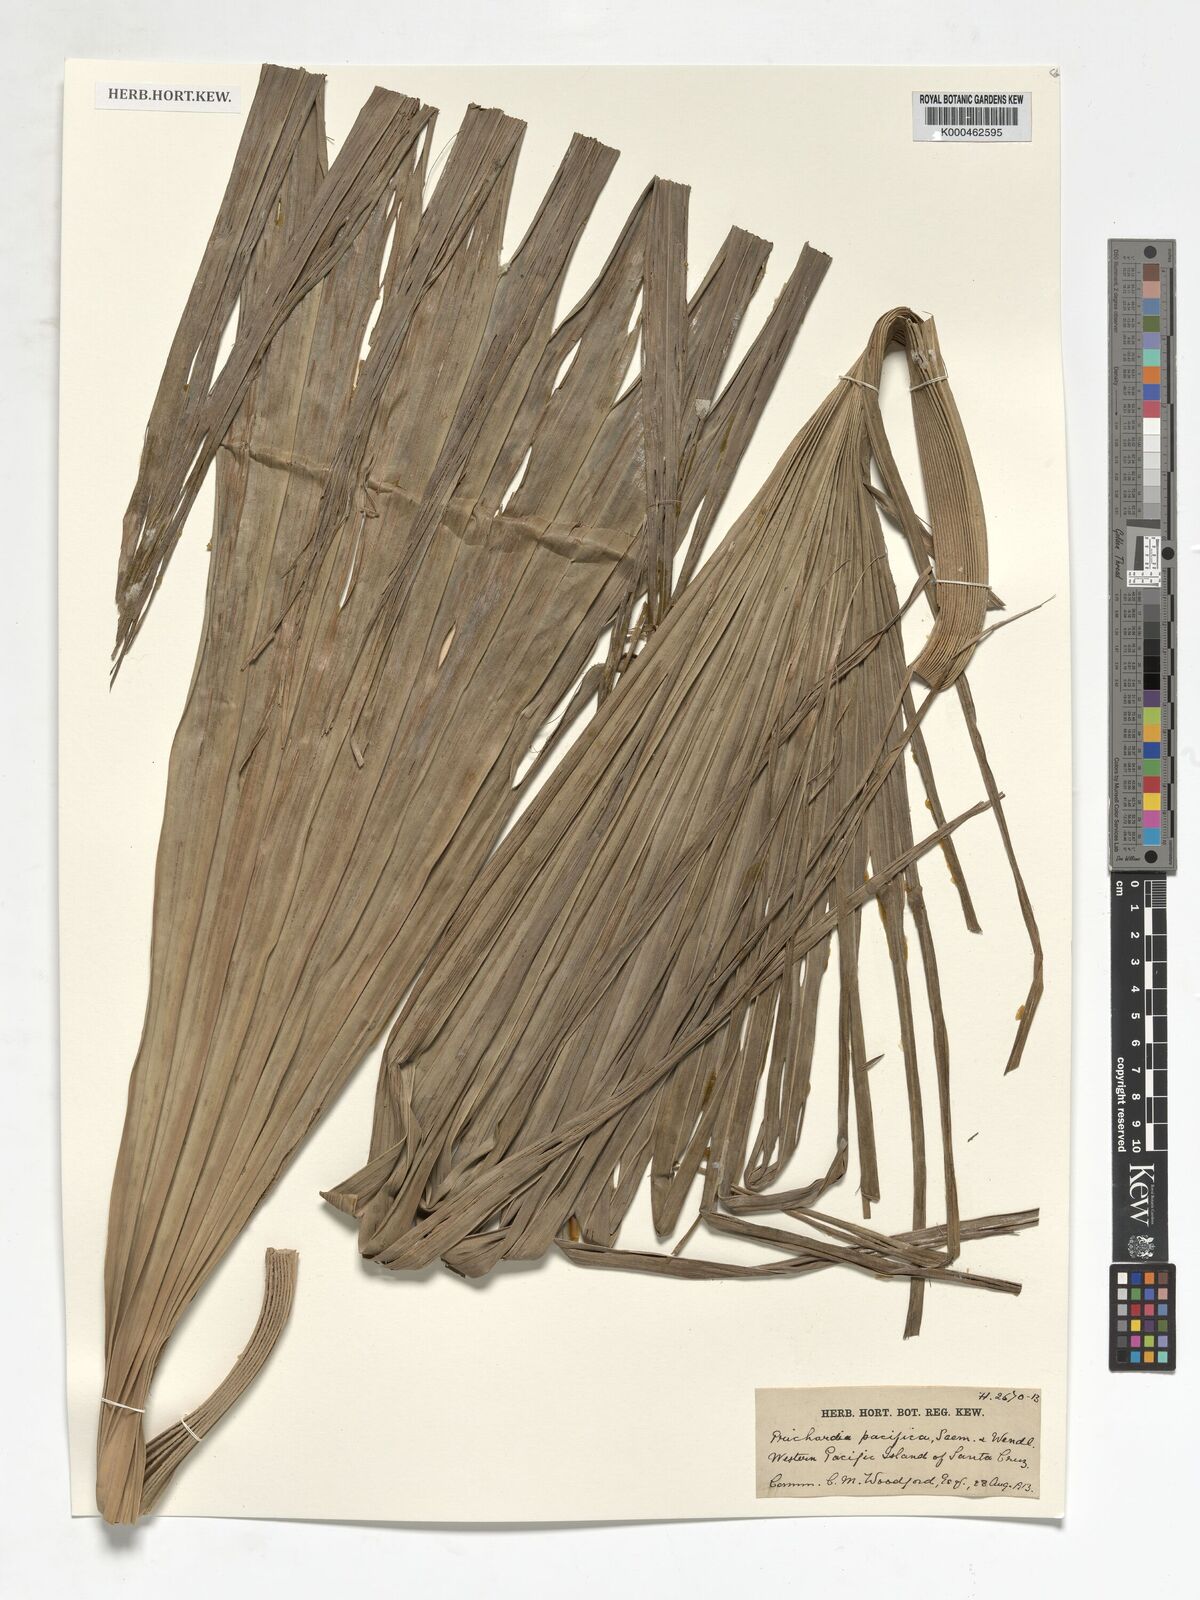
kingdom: Plantae
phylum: Tracheophyta
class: Liliopsida
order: Arecales
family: Arecaceae
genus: Pritchardia
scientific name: Pritchardia pacifica
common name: Fiji fan palm
